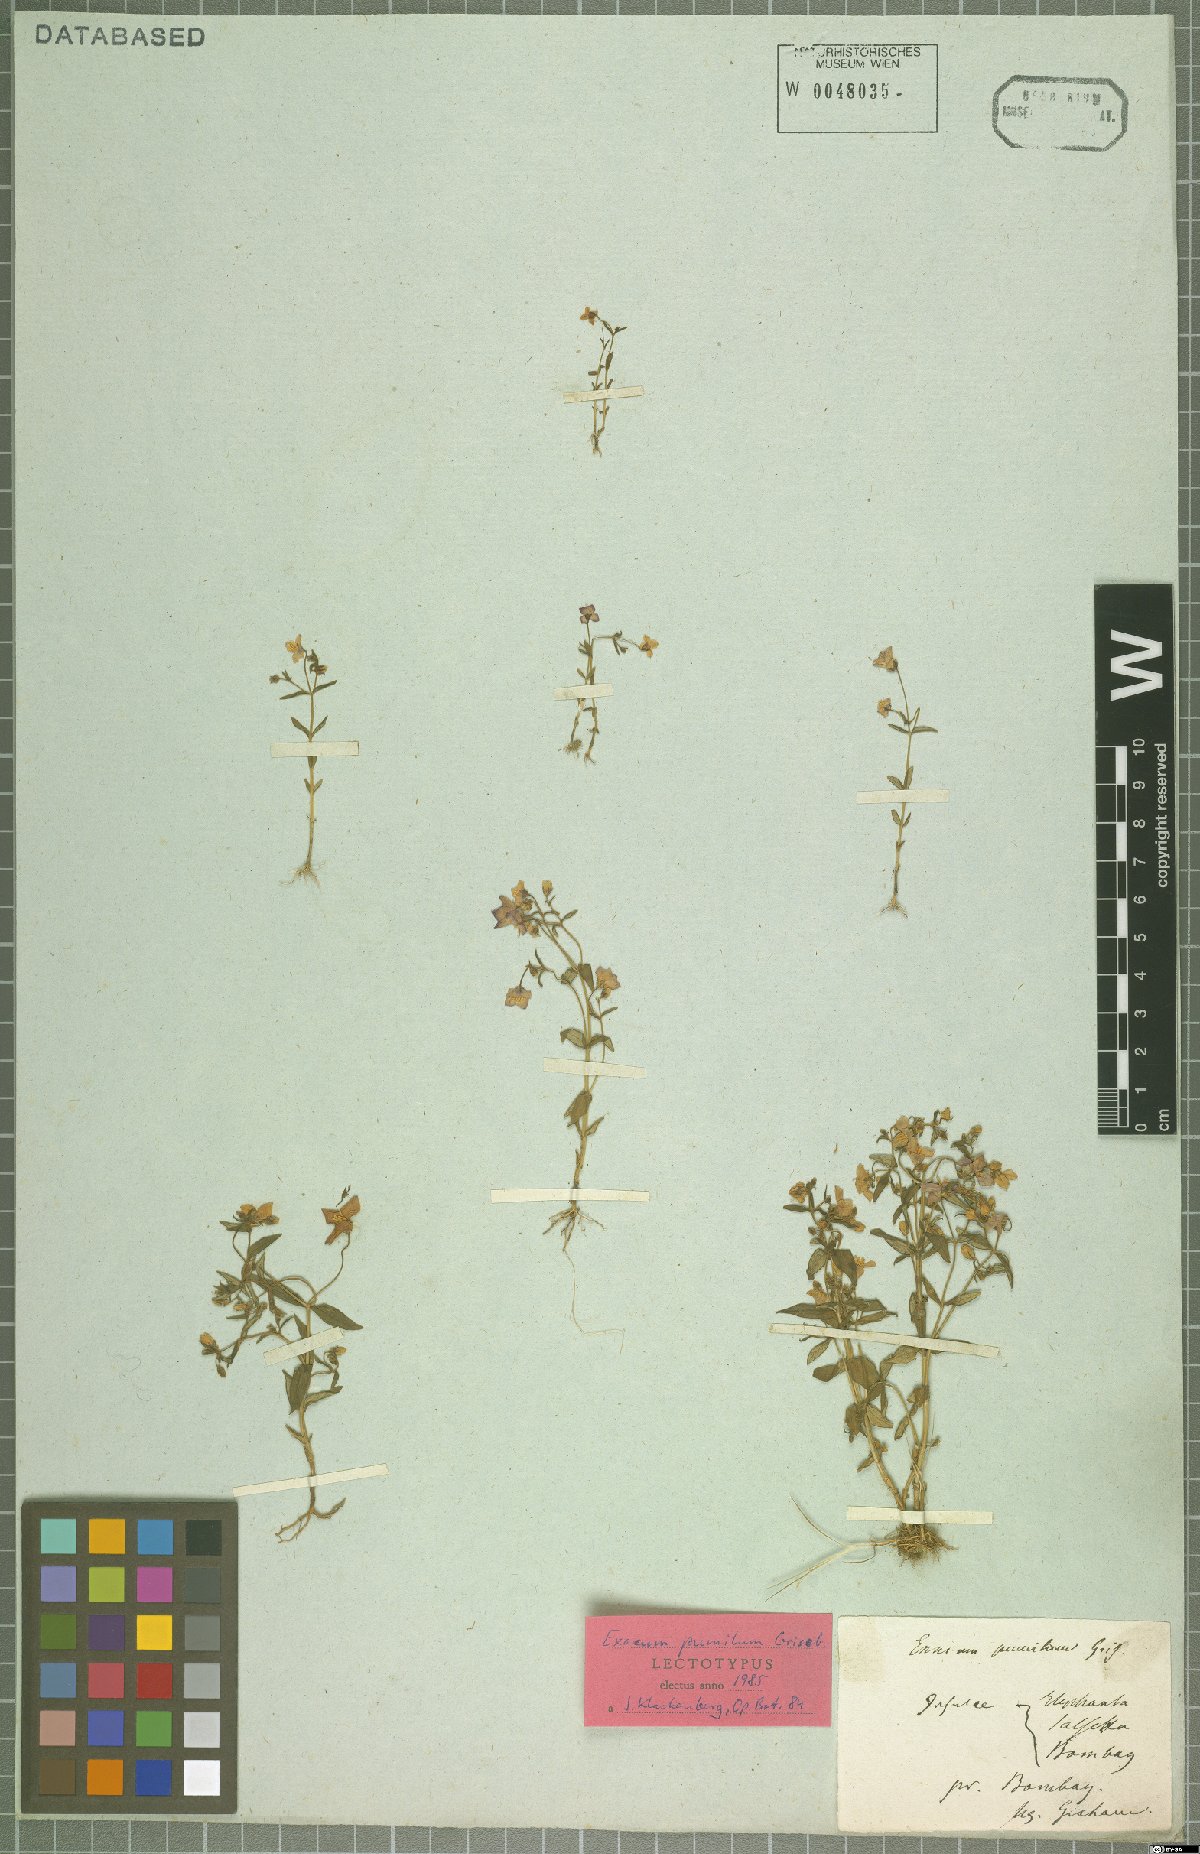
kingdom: Plantae
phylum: Tracheophyta
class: Magnoliopsida
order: Gentianales
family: Gentianaceae
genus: Exacum
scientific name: Exacum pumilum
